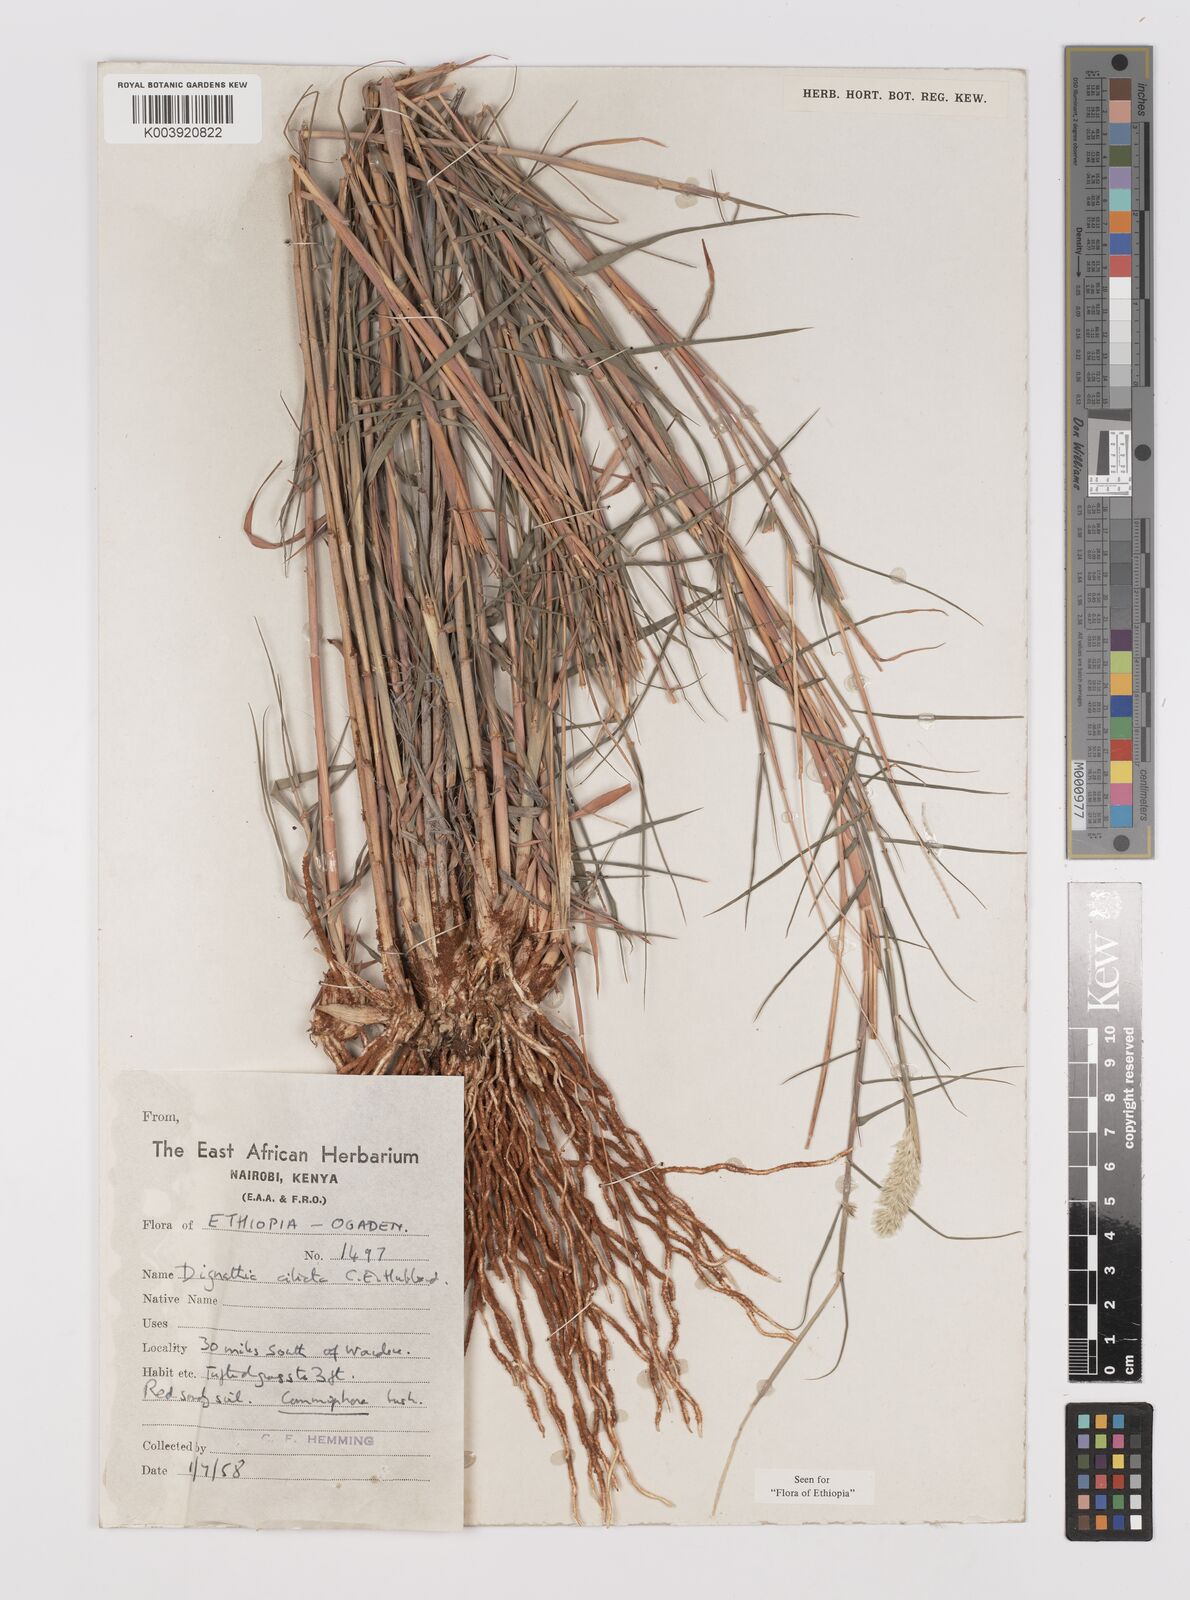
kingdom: Plantae
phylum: Tracheophyta
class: Liliopsida
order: Poales
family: Poaceae
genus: Dignathia
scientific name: Dignathia ciliata
